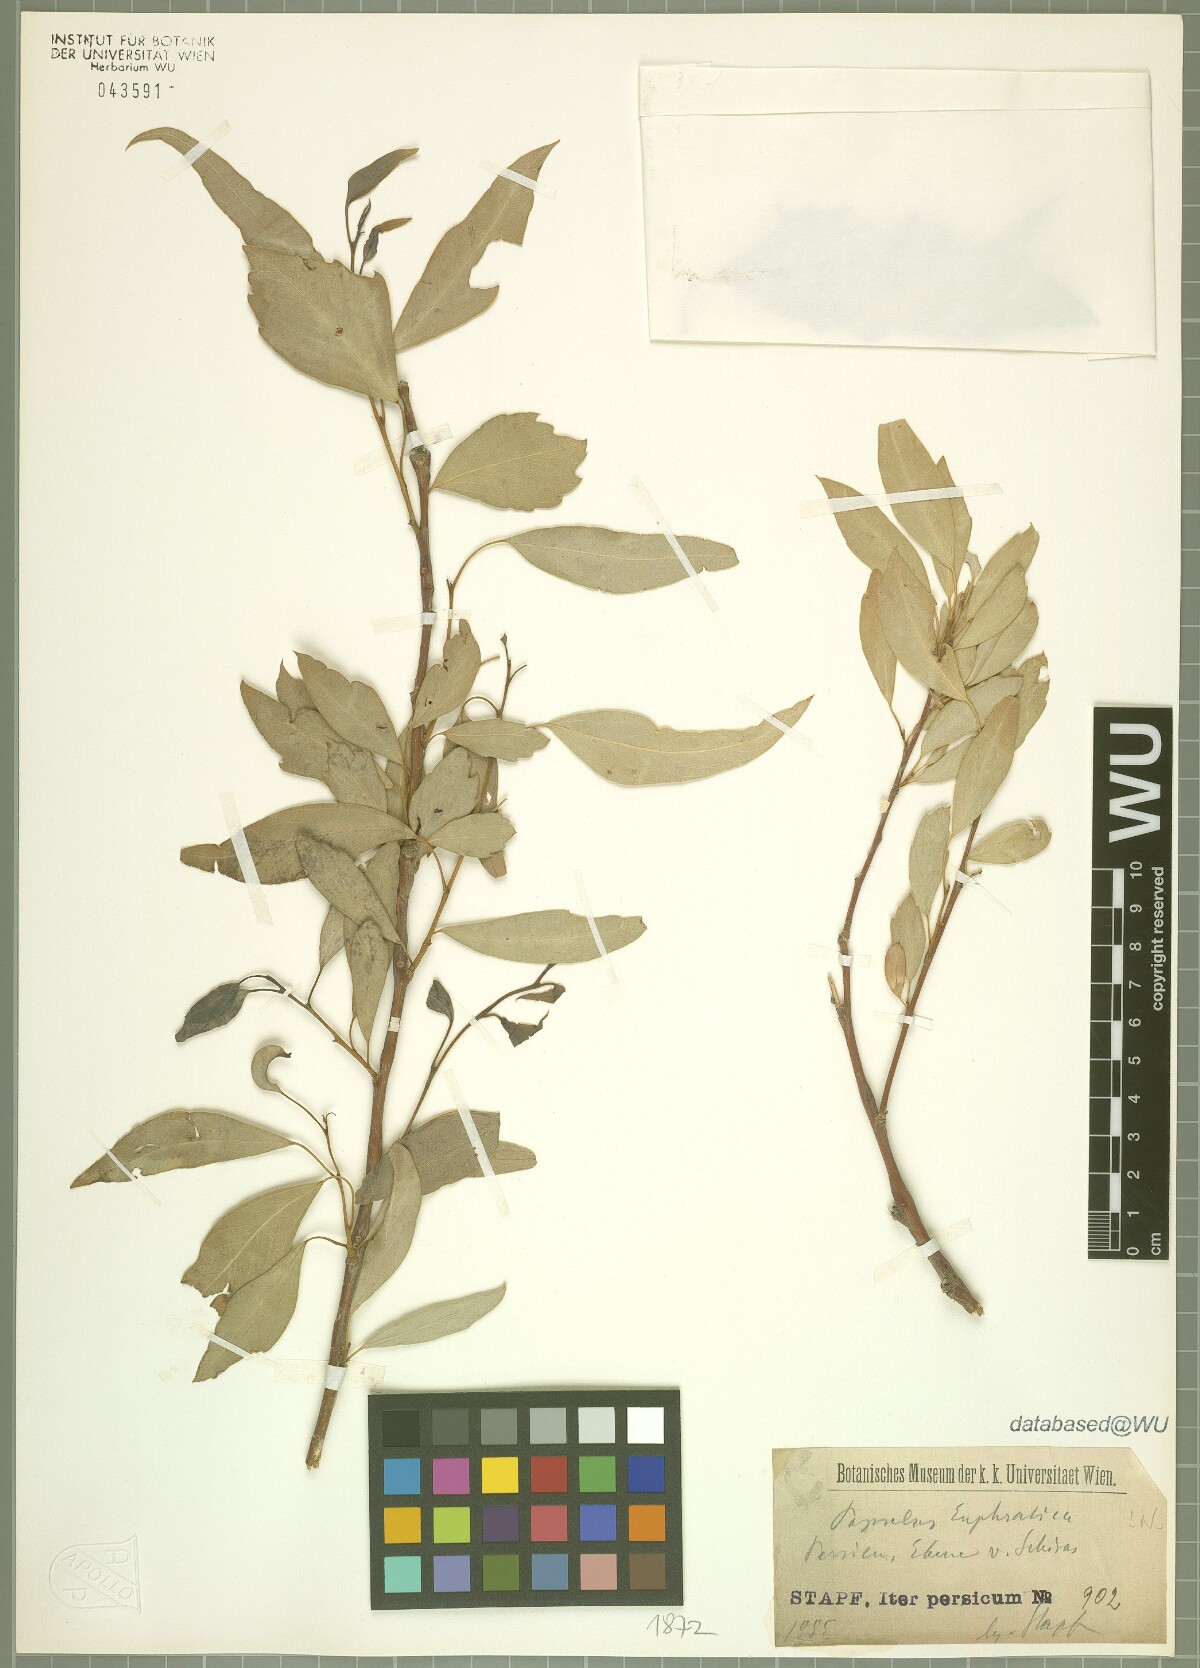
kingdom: Plantae
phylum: Tracheophyta
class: Magnoliopsida
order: Malpighiales
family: Salicaceae
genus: Populus
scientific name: Populus euphratica
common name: Euphrates poplar
